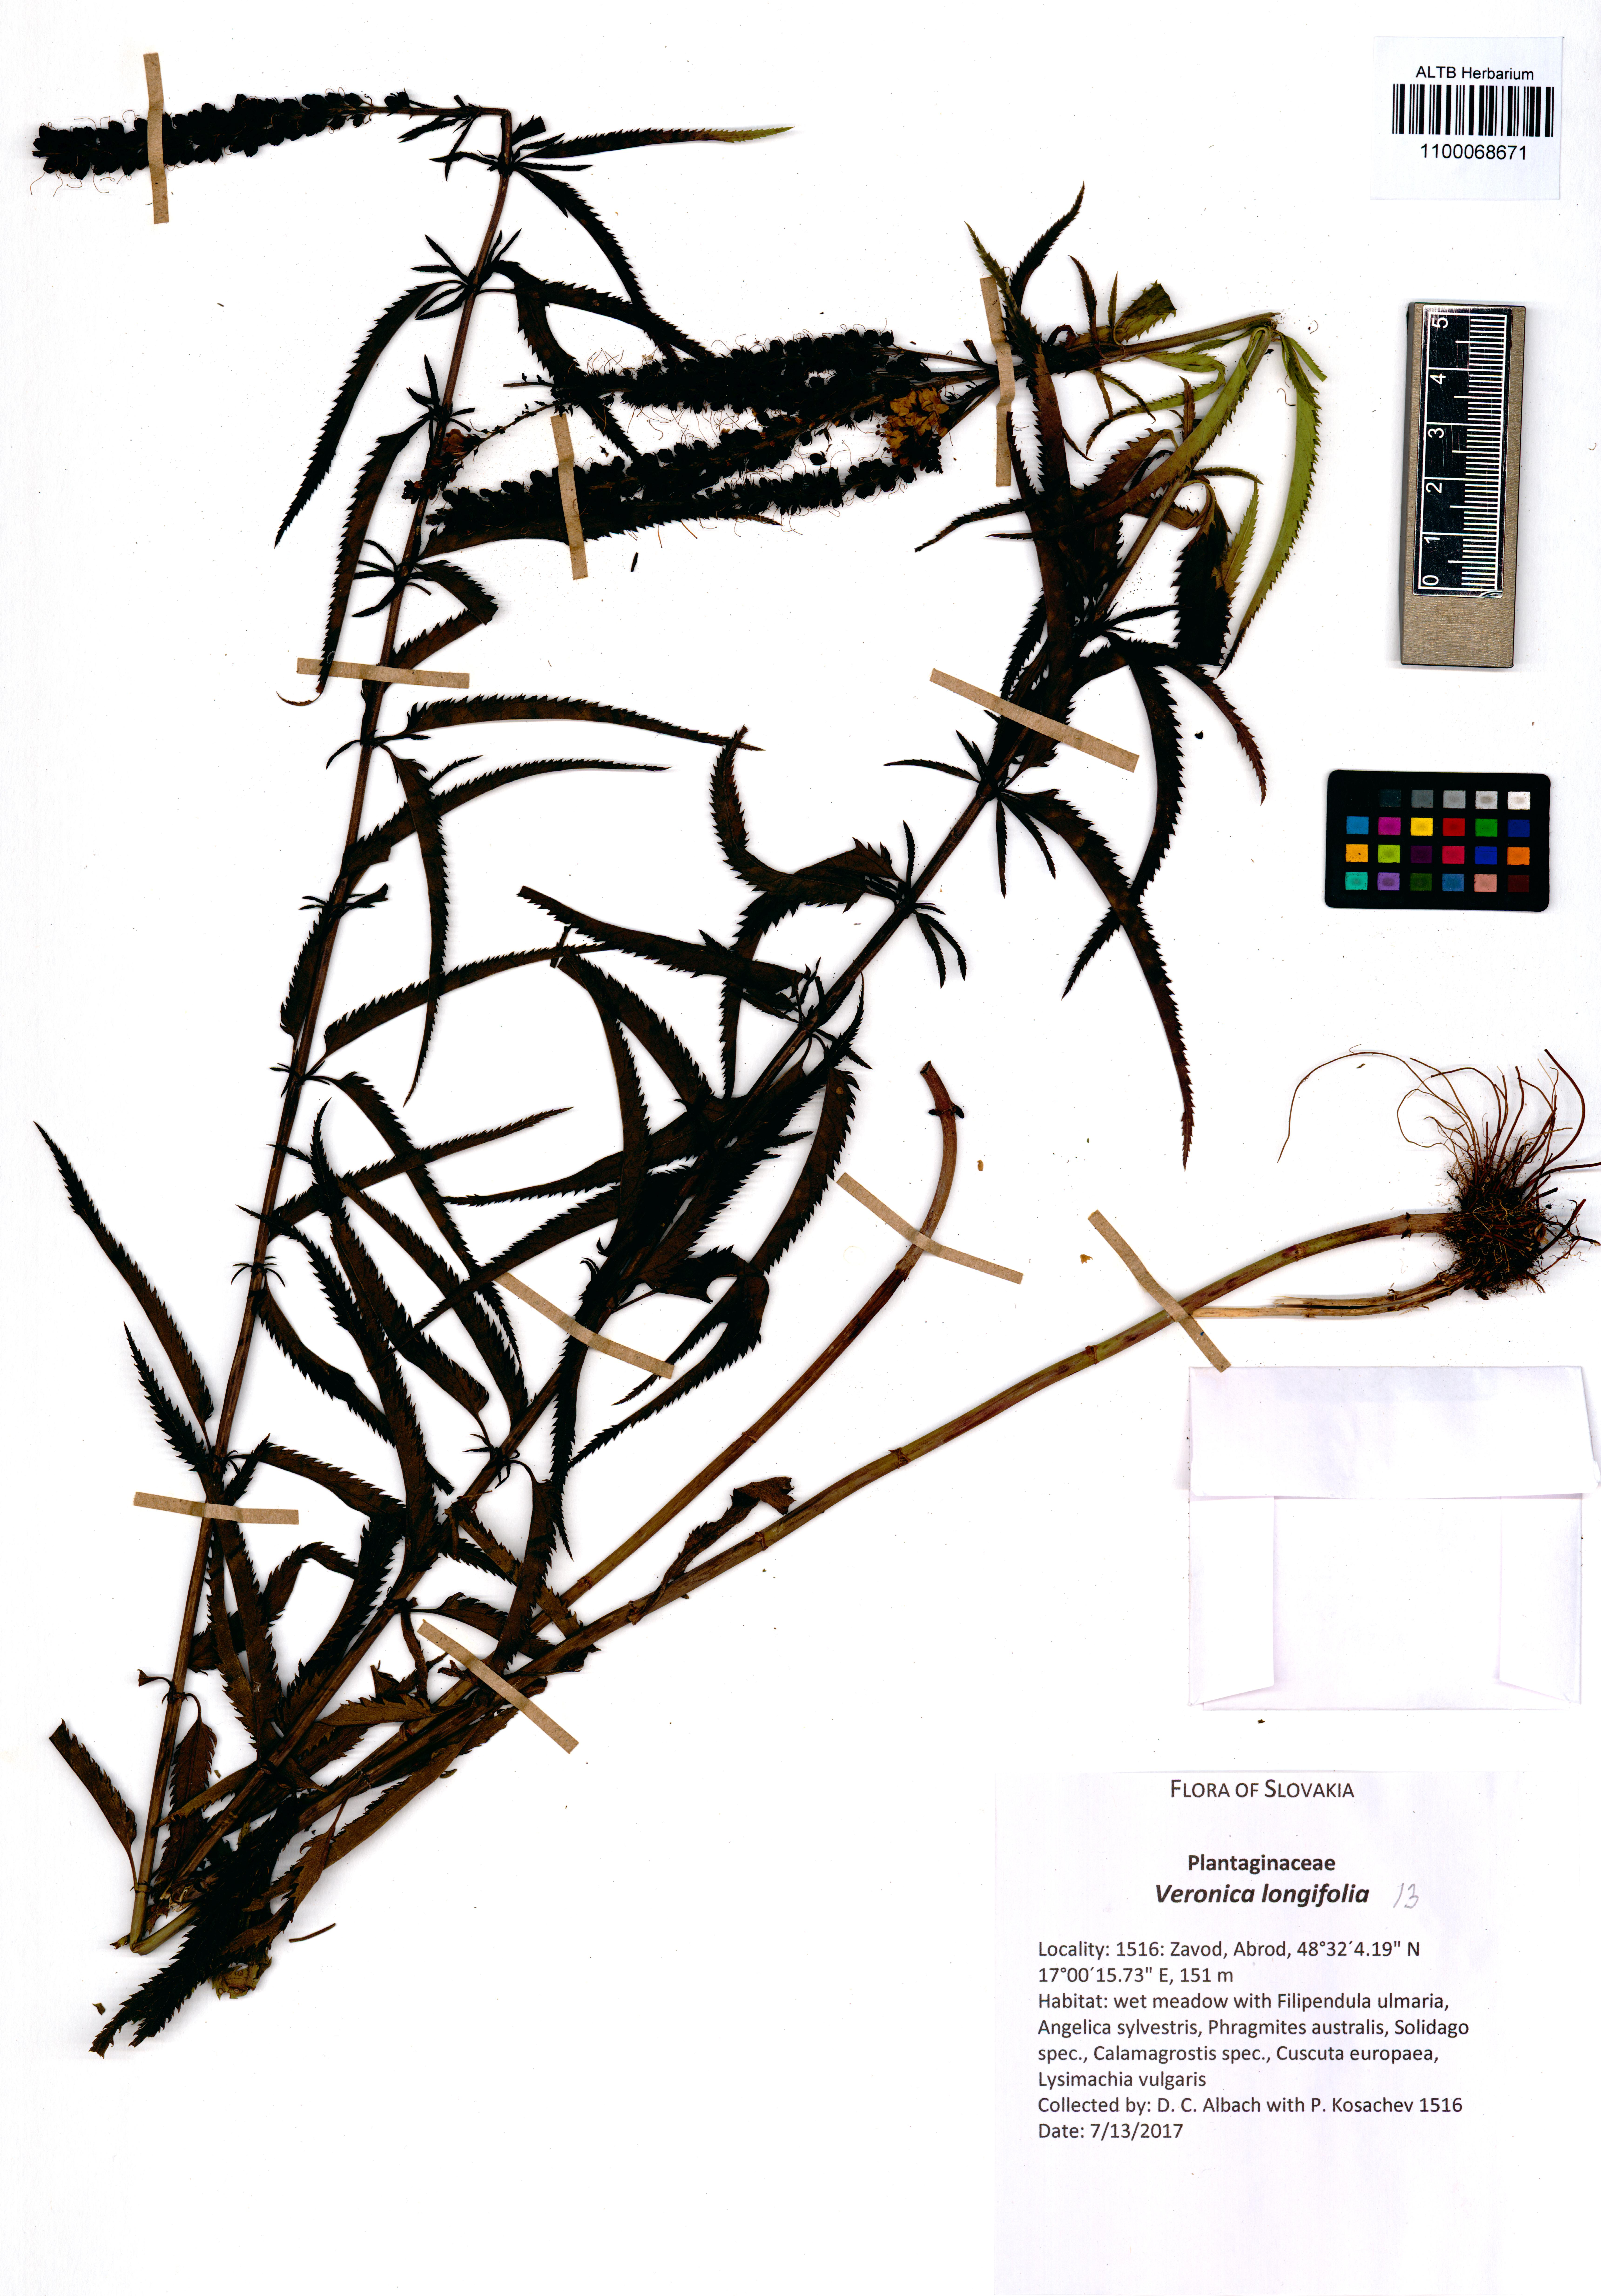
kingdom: Plantae
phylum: Tracheophyta
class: Magnoliopsida
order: Lamiales
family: Plantaginaceae
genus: Veronica
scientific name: Veronica longifolia
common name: Garden speedwell
